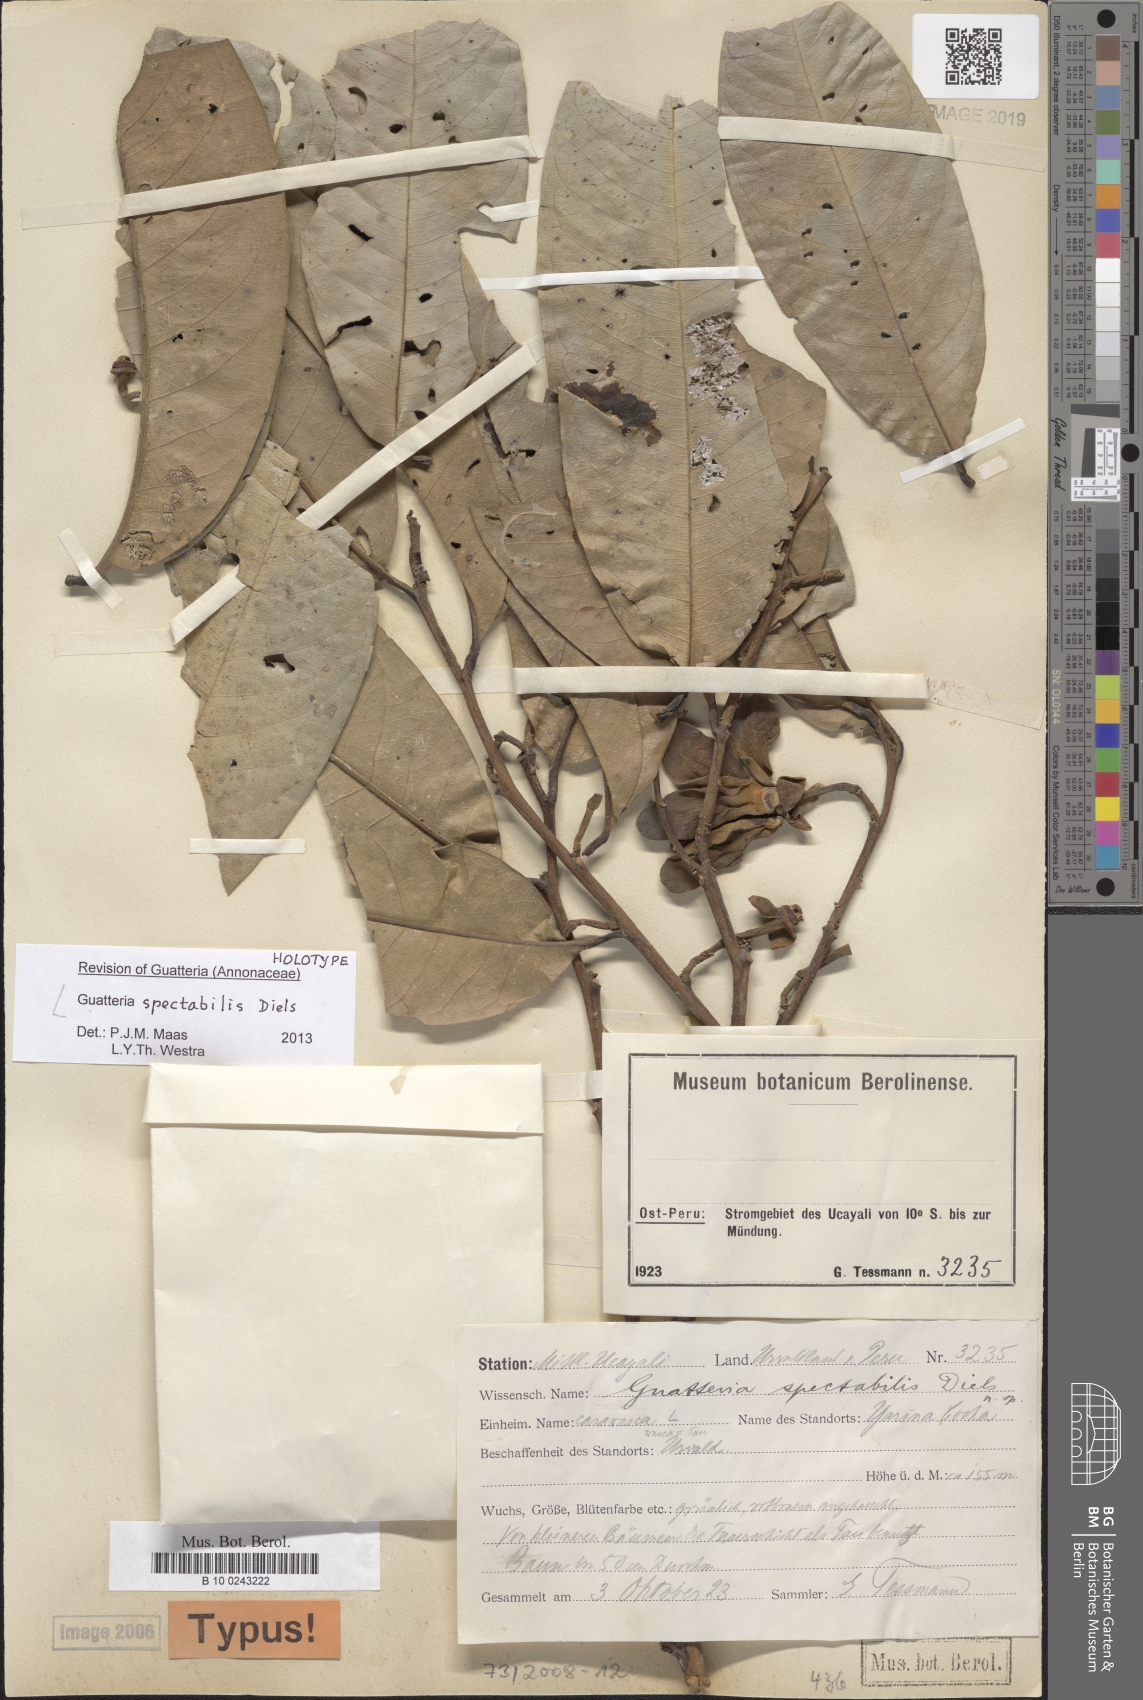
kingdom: Plantae
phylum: Tracheophyta
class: Magnoliopsida
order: Magnoliales
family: Annonaceae
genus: Guatteria
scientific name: Guatteria spectabilis
